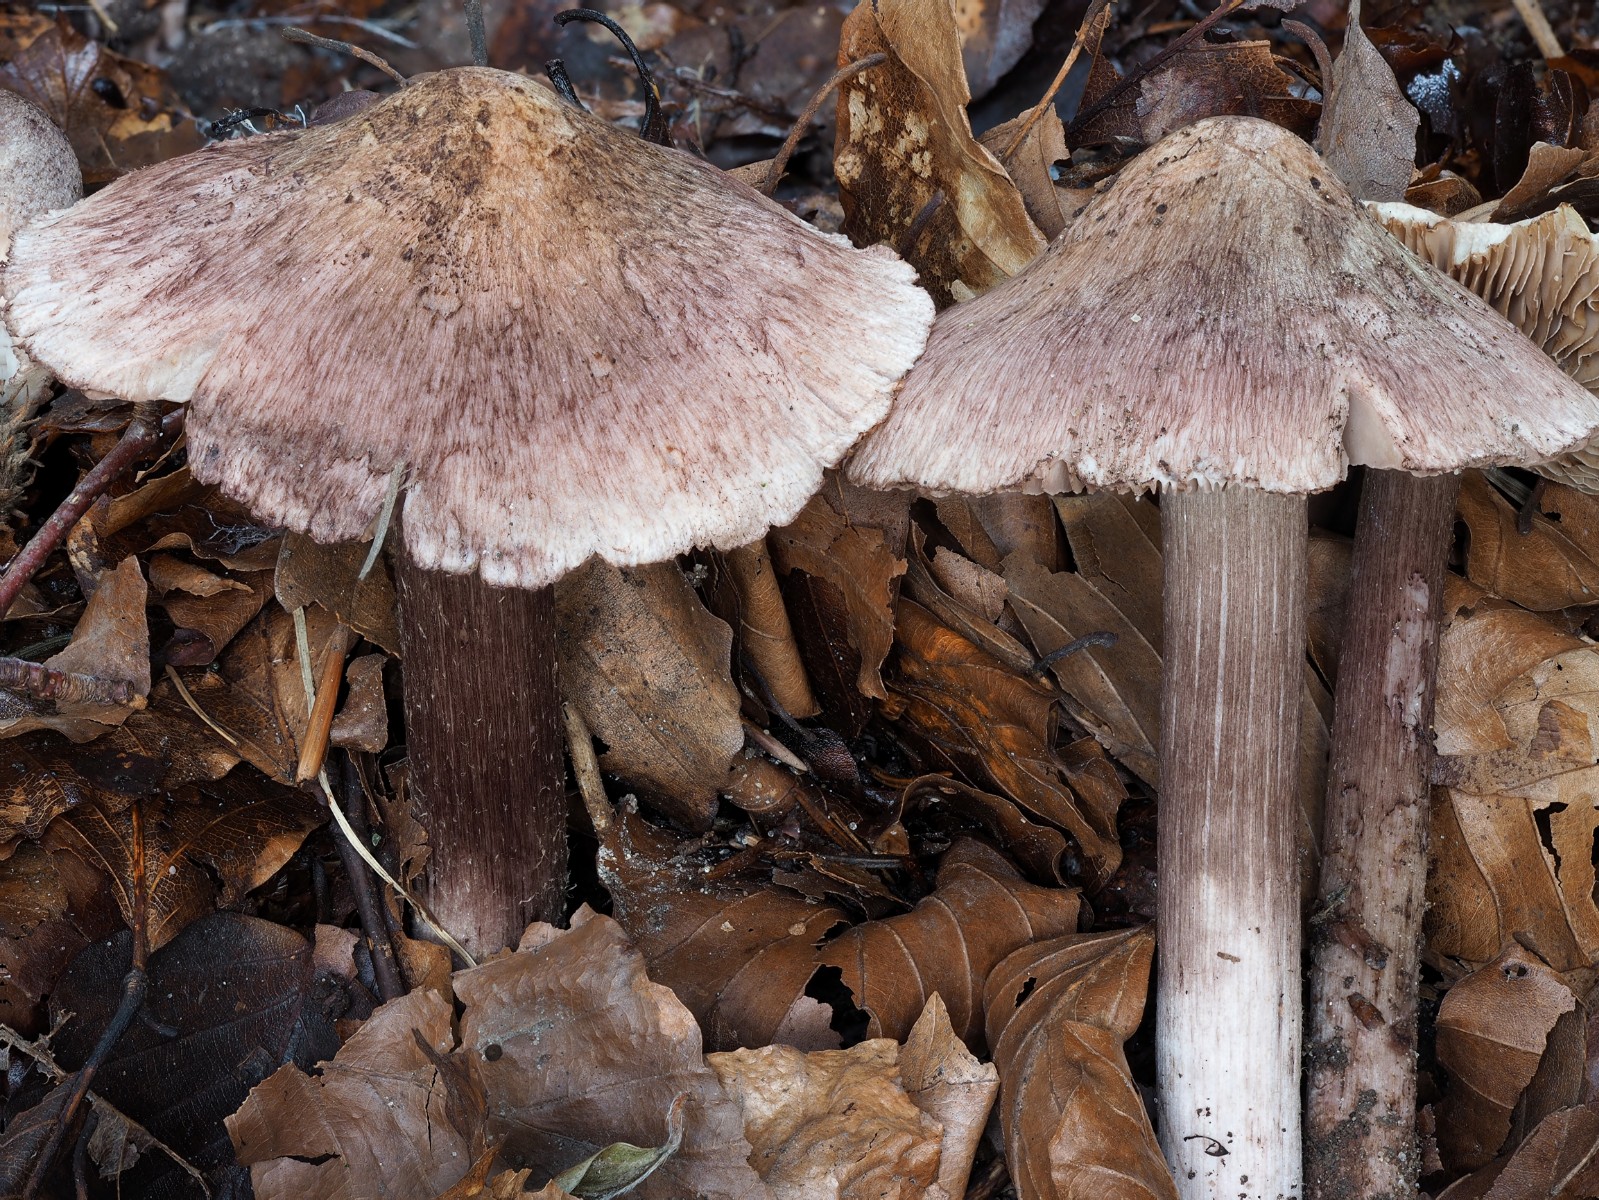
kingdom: Fungi
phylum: Basidiomycota
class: Agaricomycetes
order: Agaricales
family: Inocybaceae
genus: Inosperma
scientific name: Inosperma adaequatum
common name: vinrød trævlhat
